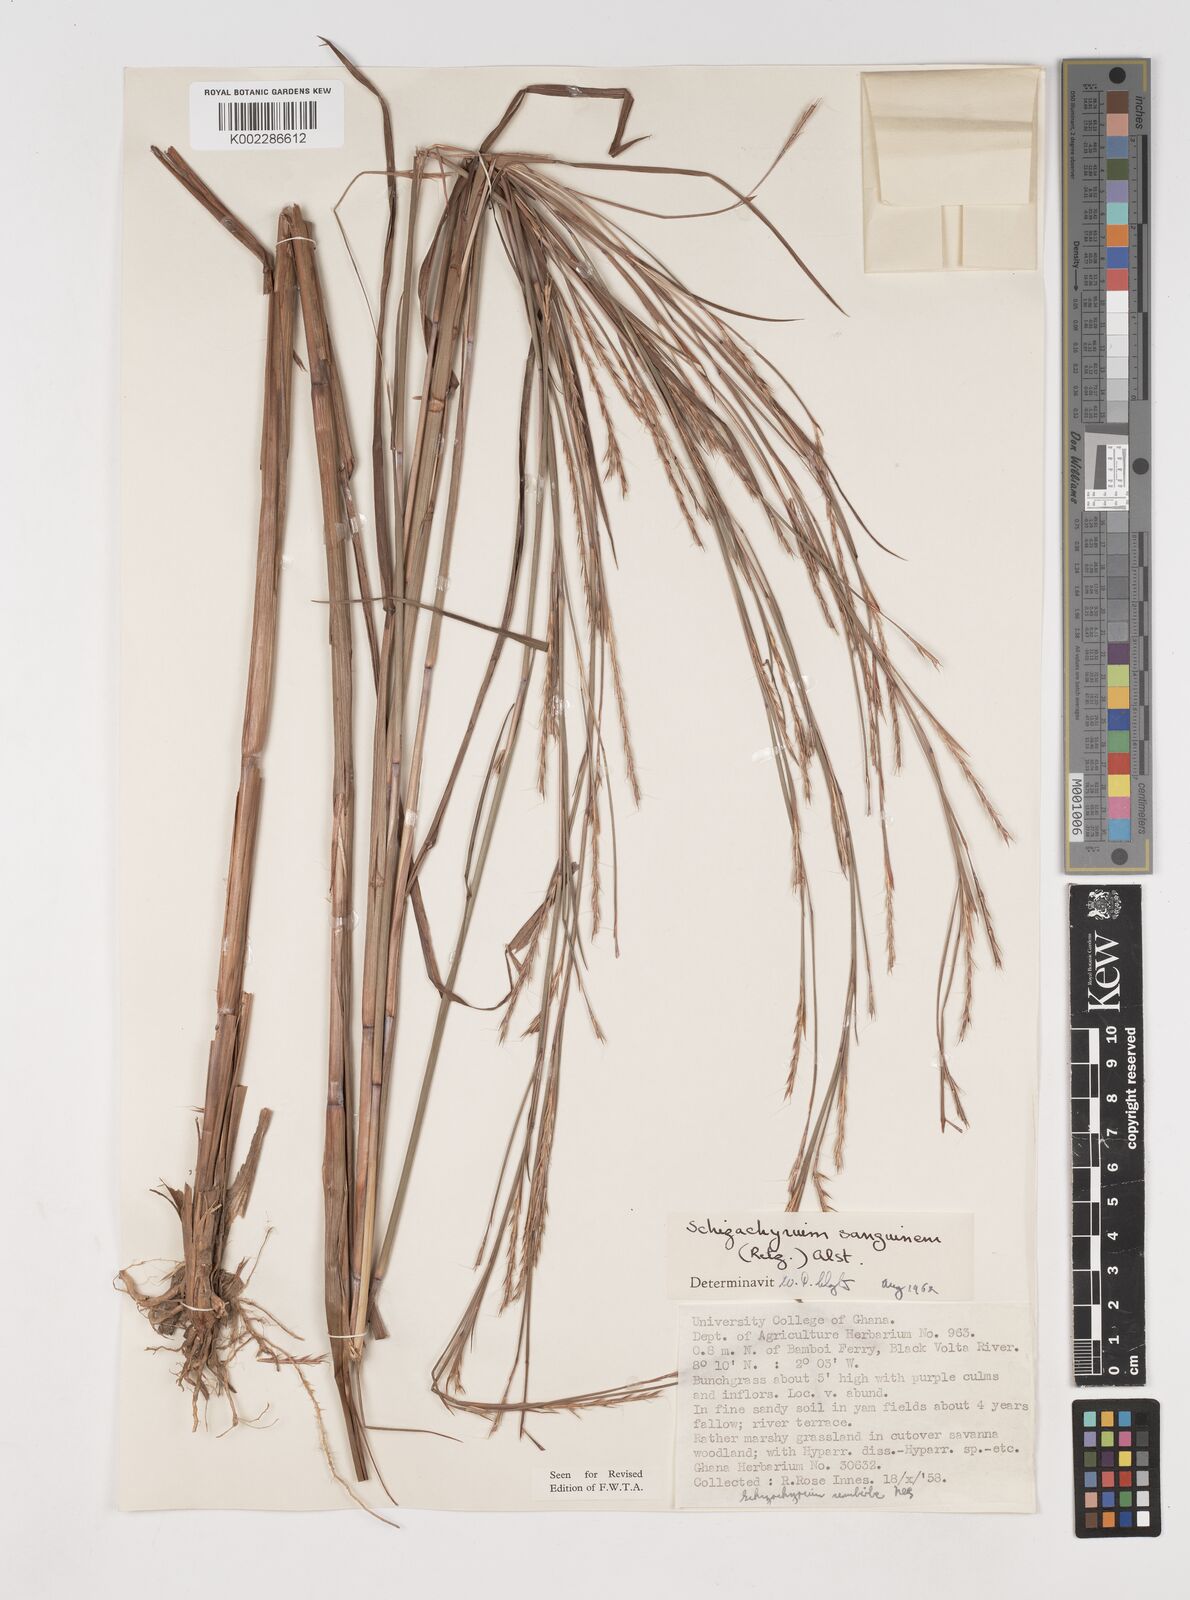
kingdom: Plantae
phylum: Tracheophyta
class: Liliopsida
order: Poales
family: Poaceae
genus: Schizachyrium
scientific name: Schizachyrium sanguineum
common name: Crimson bluestem
